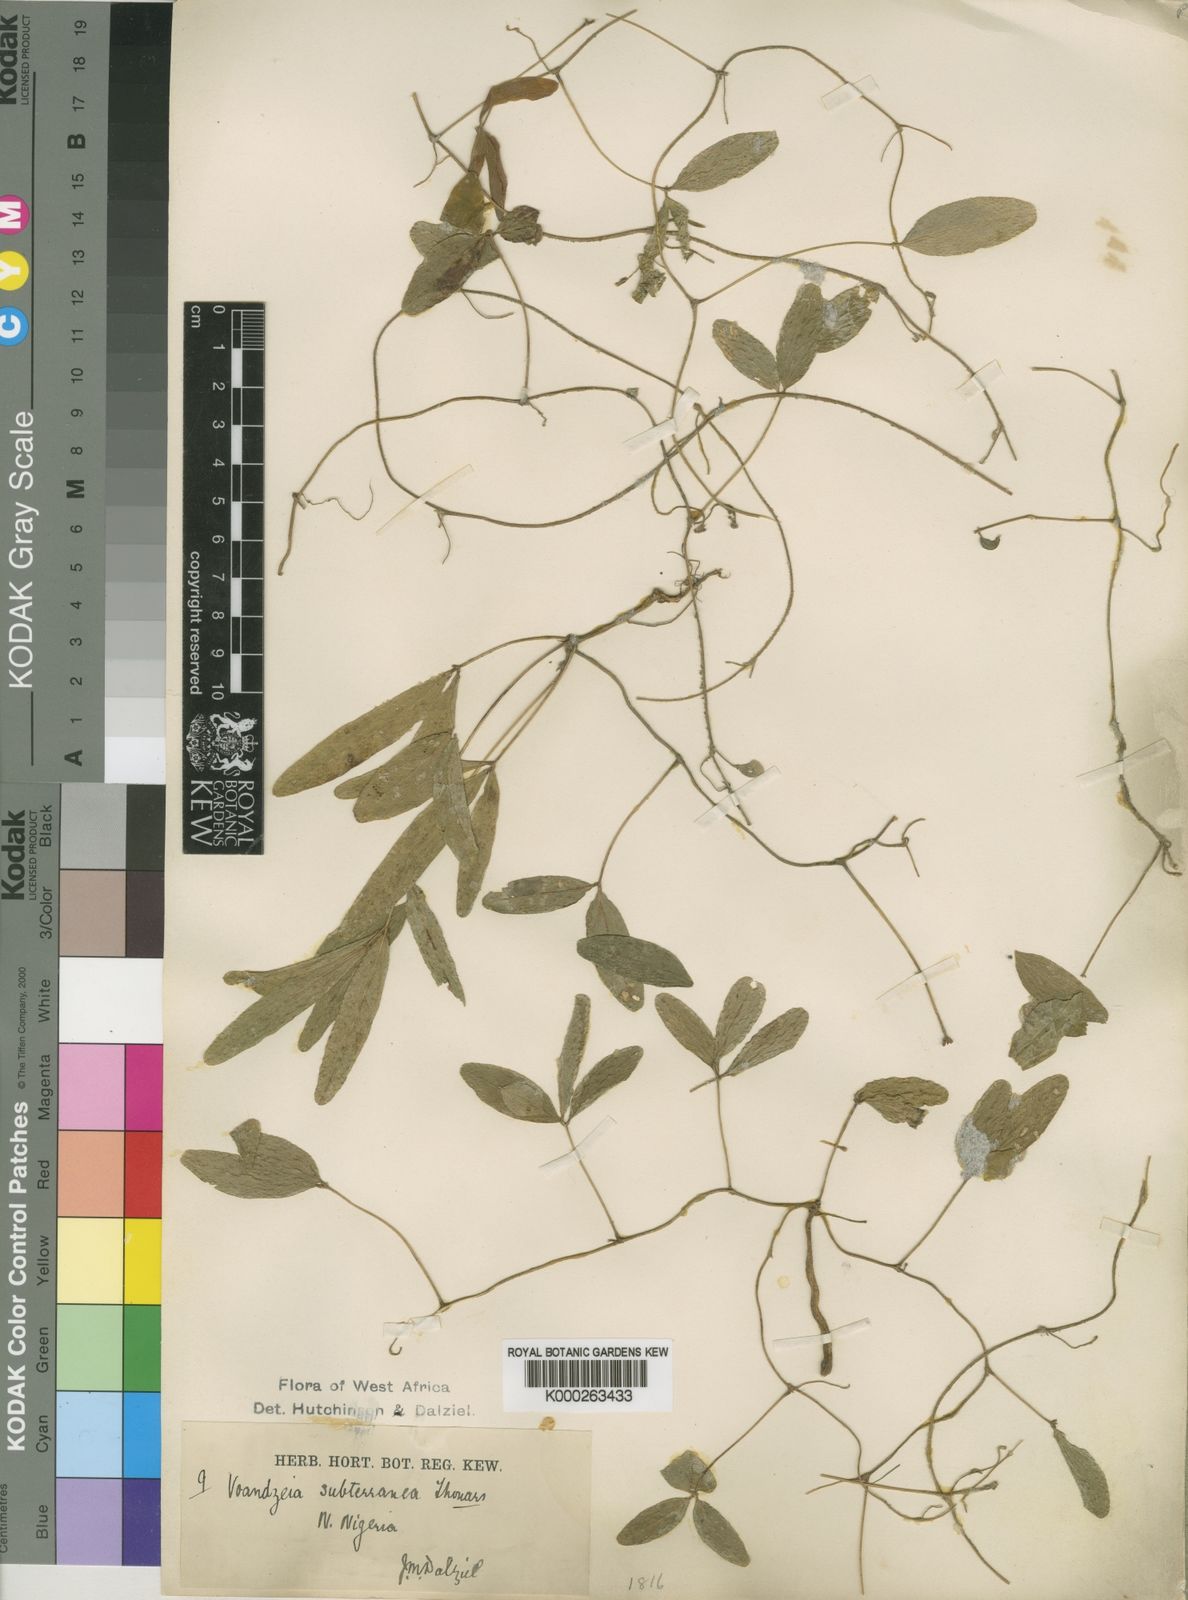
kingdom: Plantae
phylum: Tracheophyta
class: Magnoliopsida
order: Fabales
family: Fabaceae
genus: Vigna
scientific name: Vigna subterranea
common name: Bambara groundnut
